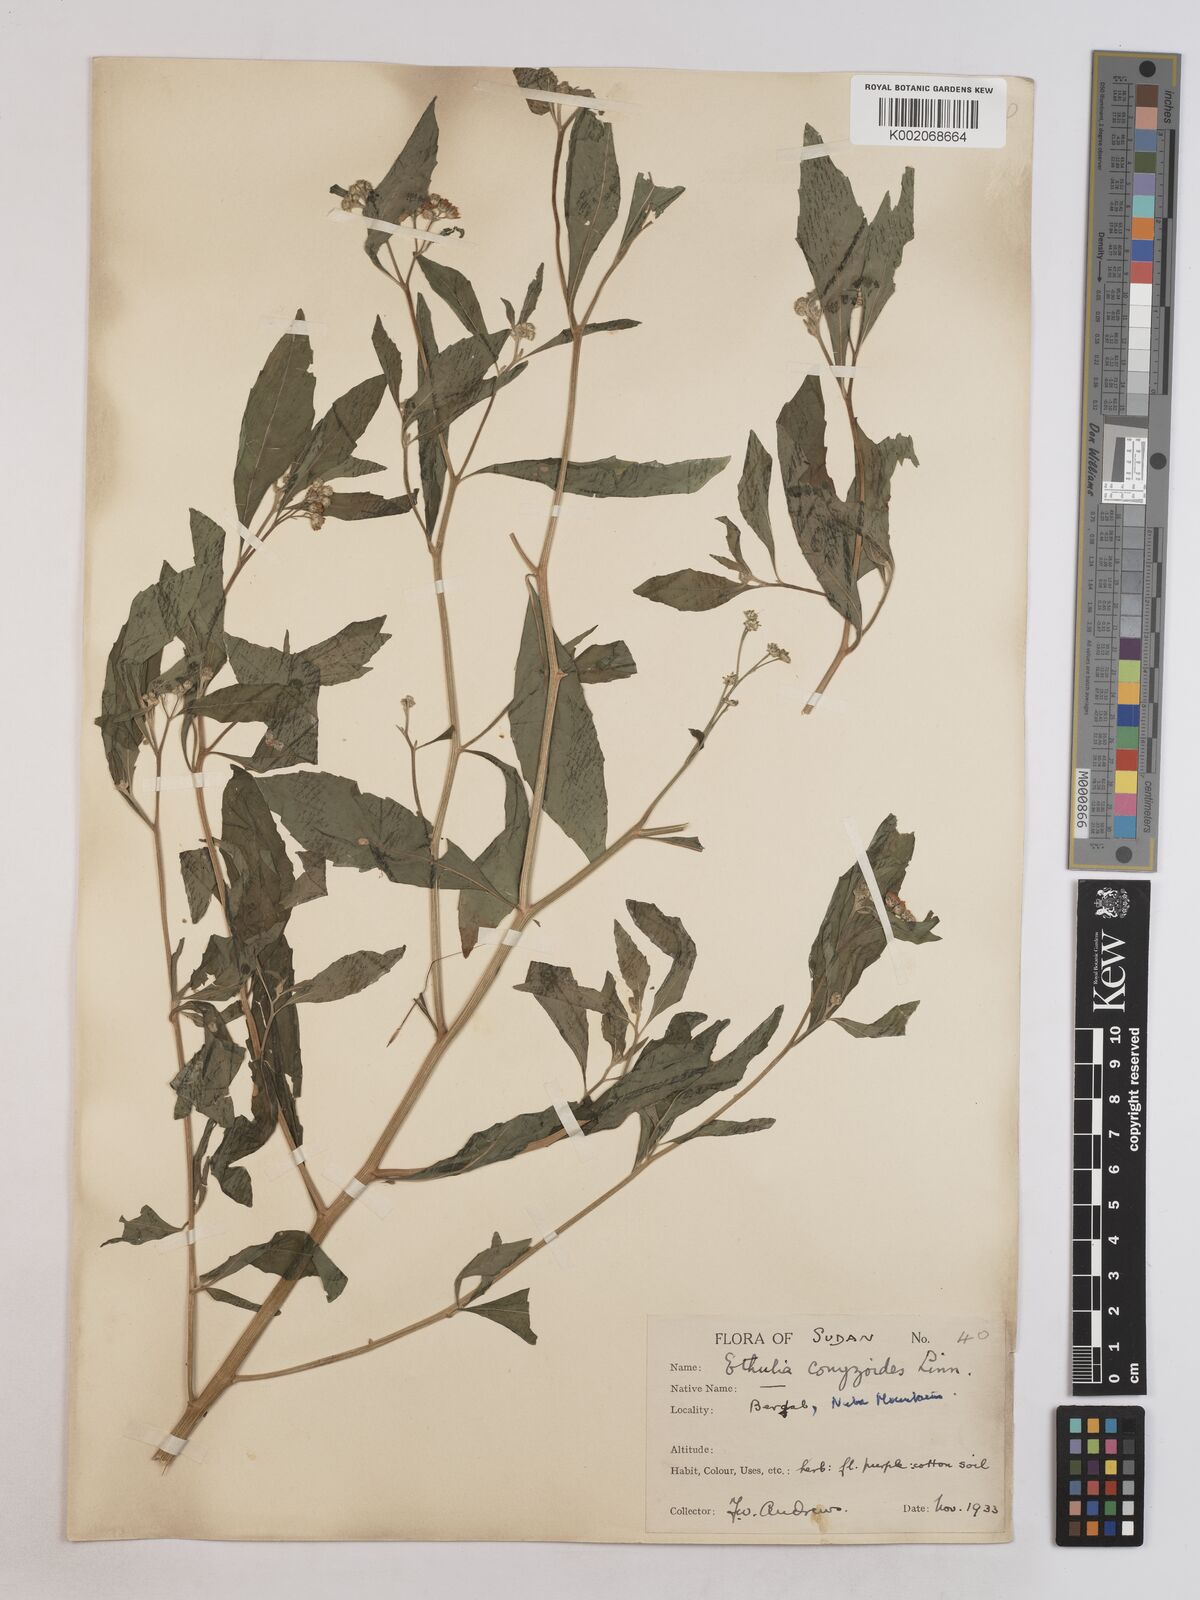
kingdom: Plantae
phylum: Tracheophyta
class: Magnoliopsida
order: Asterales
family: Asteraceae
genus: Ethulia
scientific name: Ethulia gracilis
